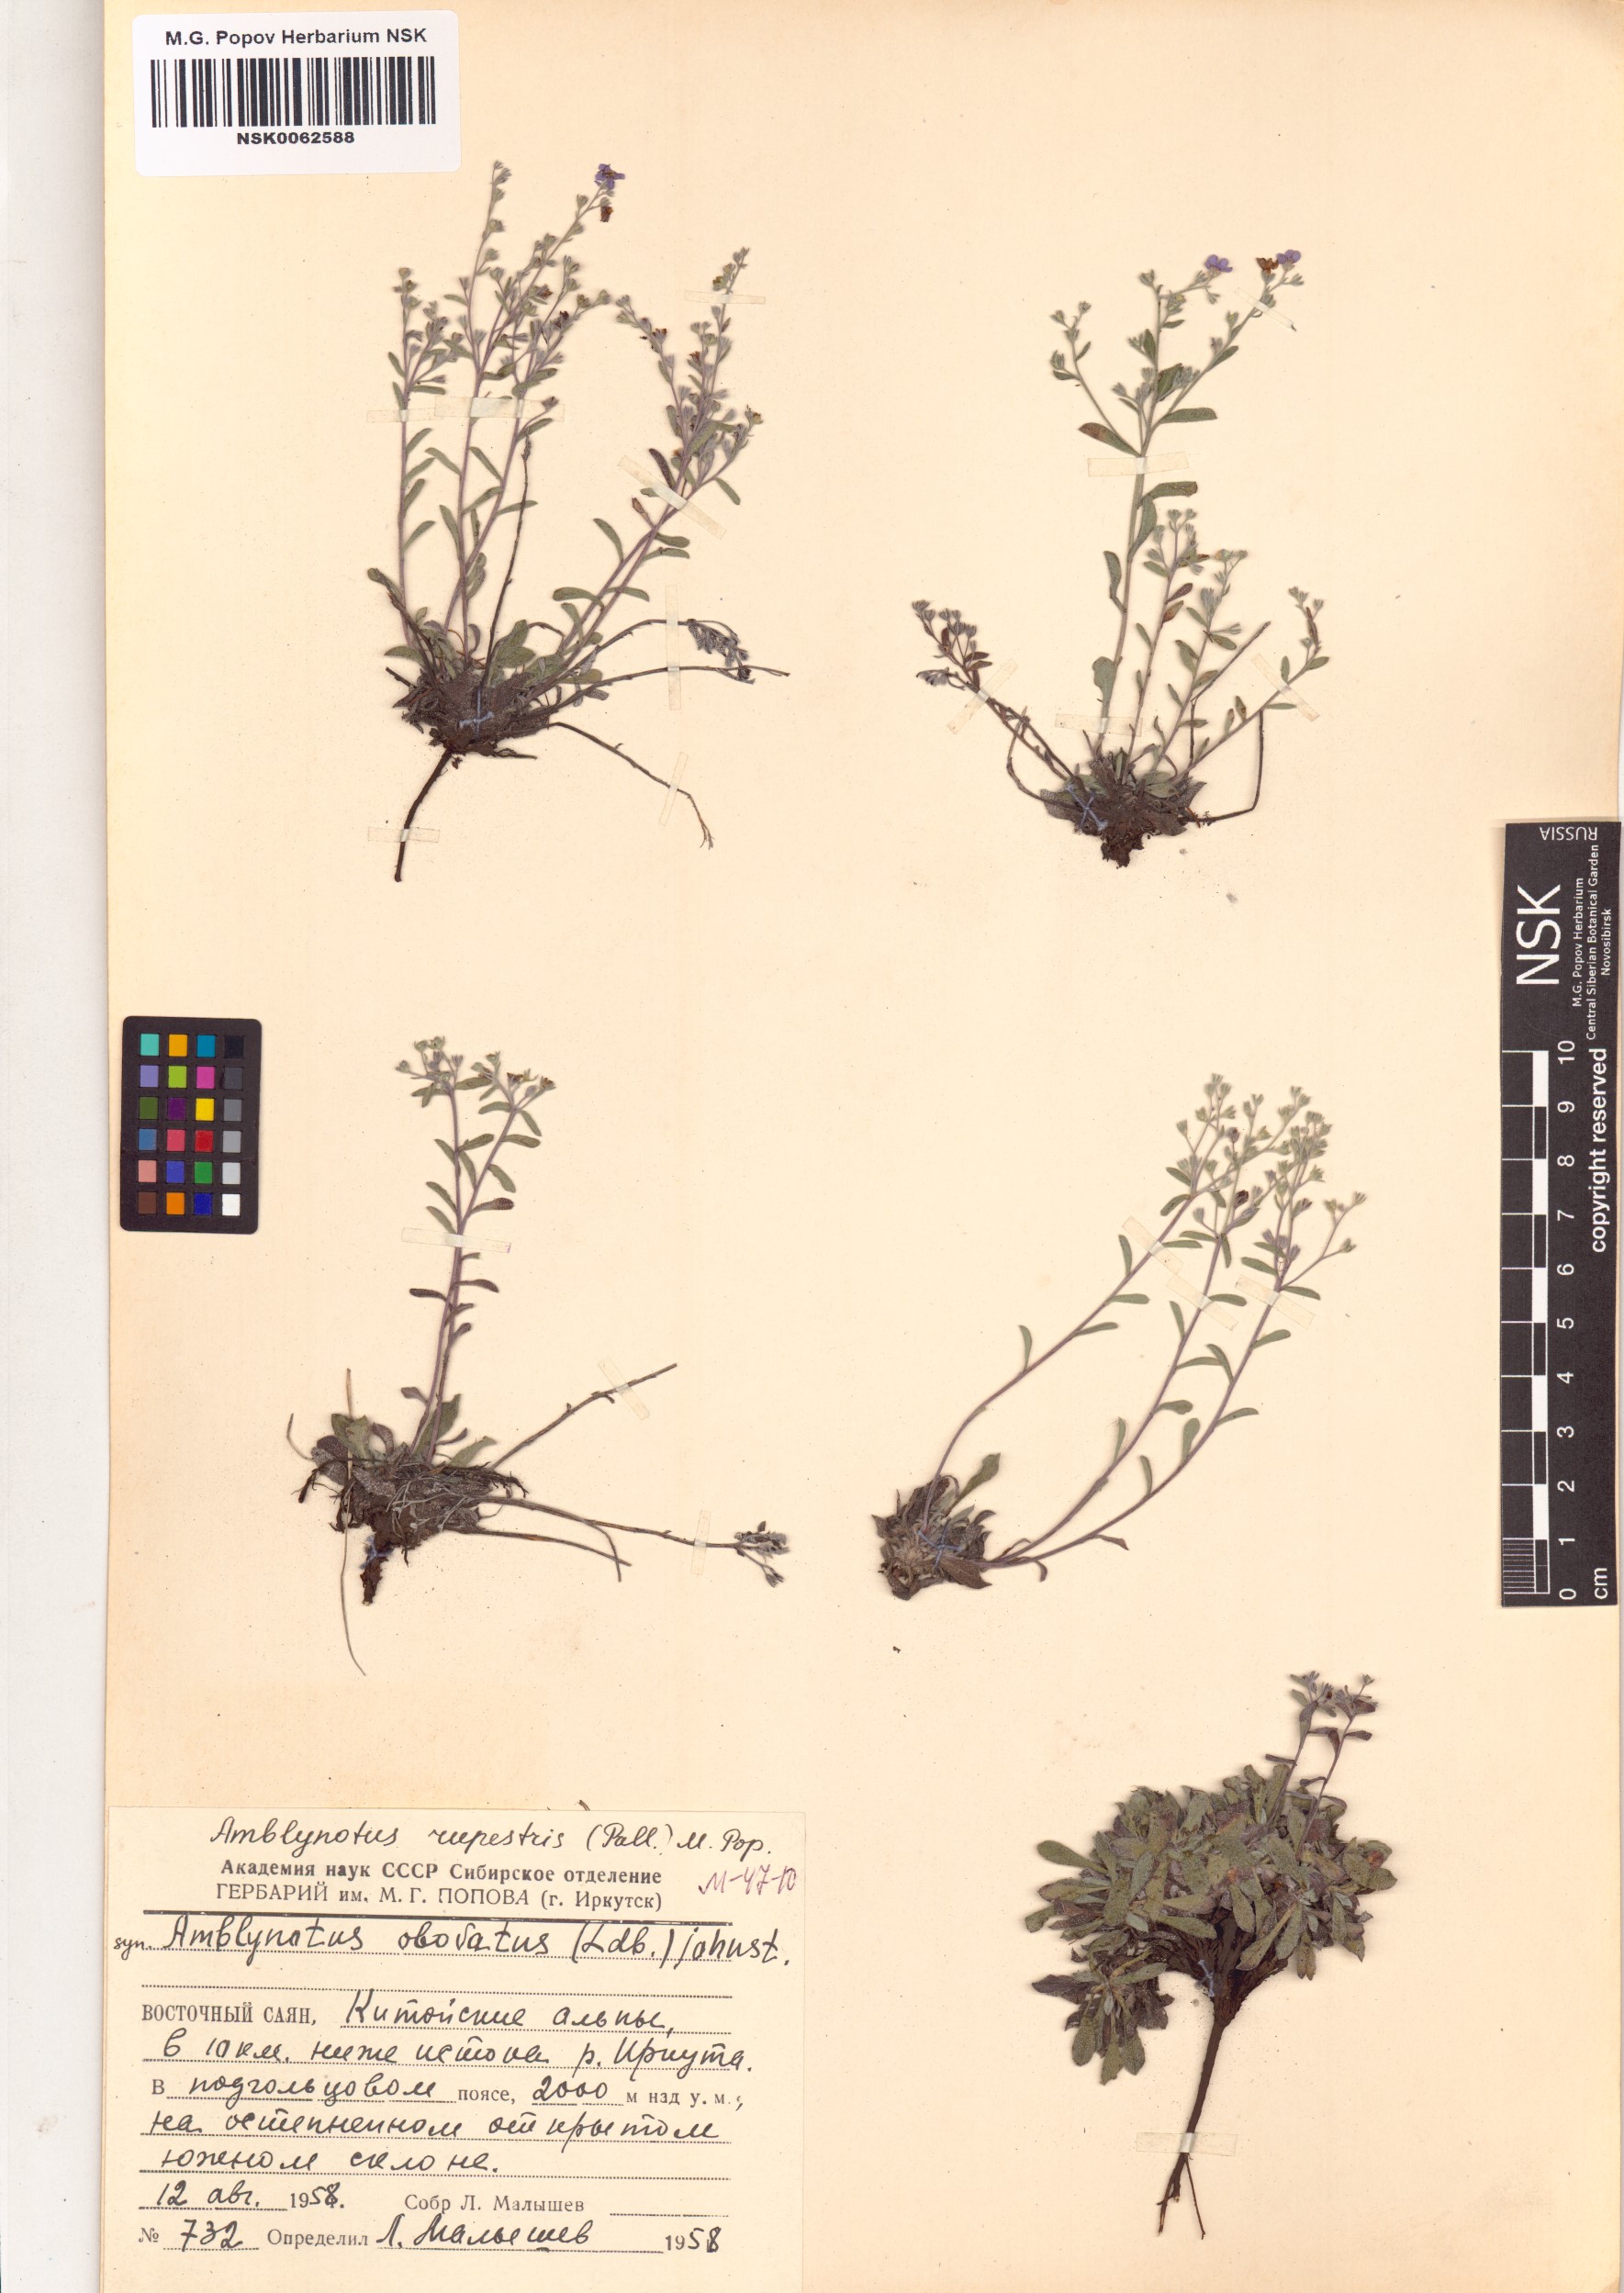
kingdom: Plantae
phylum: Tracheophyta
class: Magnoliopsida
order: Boraginales
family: Boraginaceae
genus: Eritrichium
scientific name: Eritrichium rupestre
